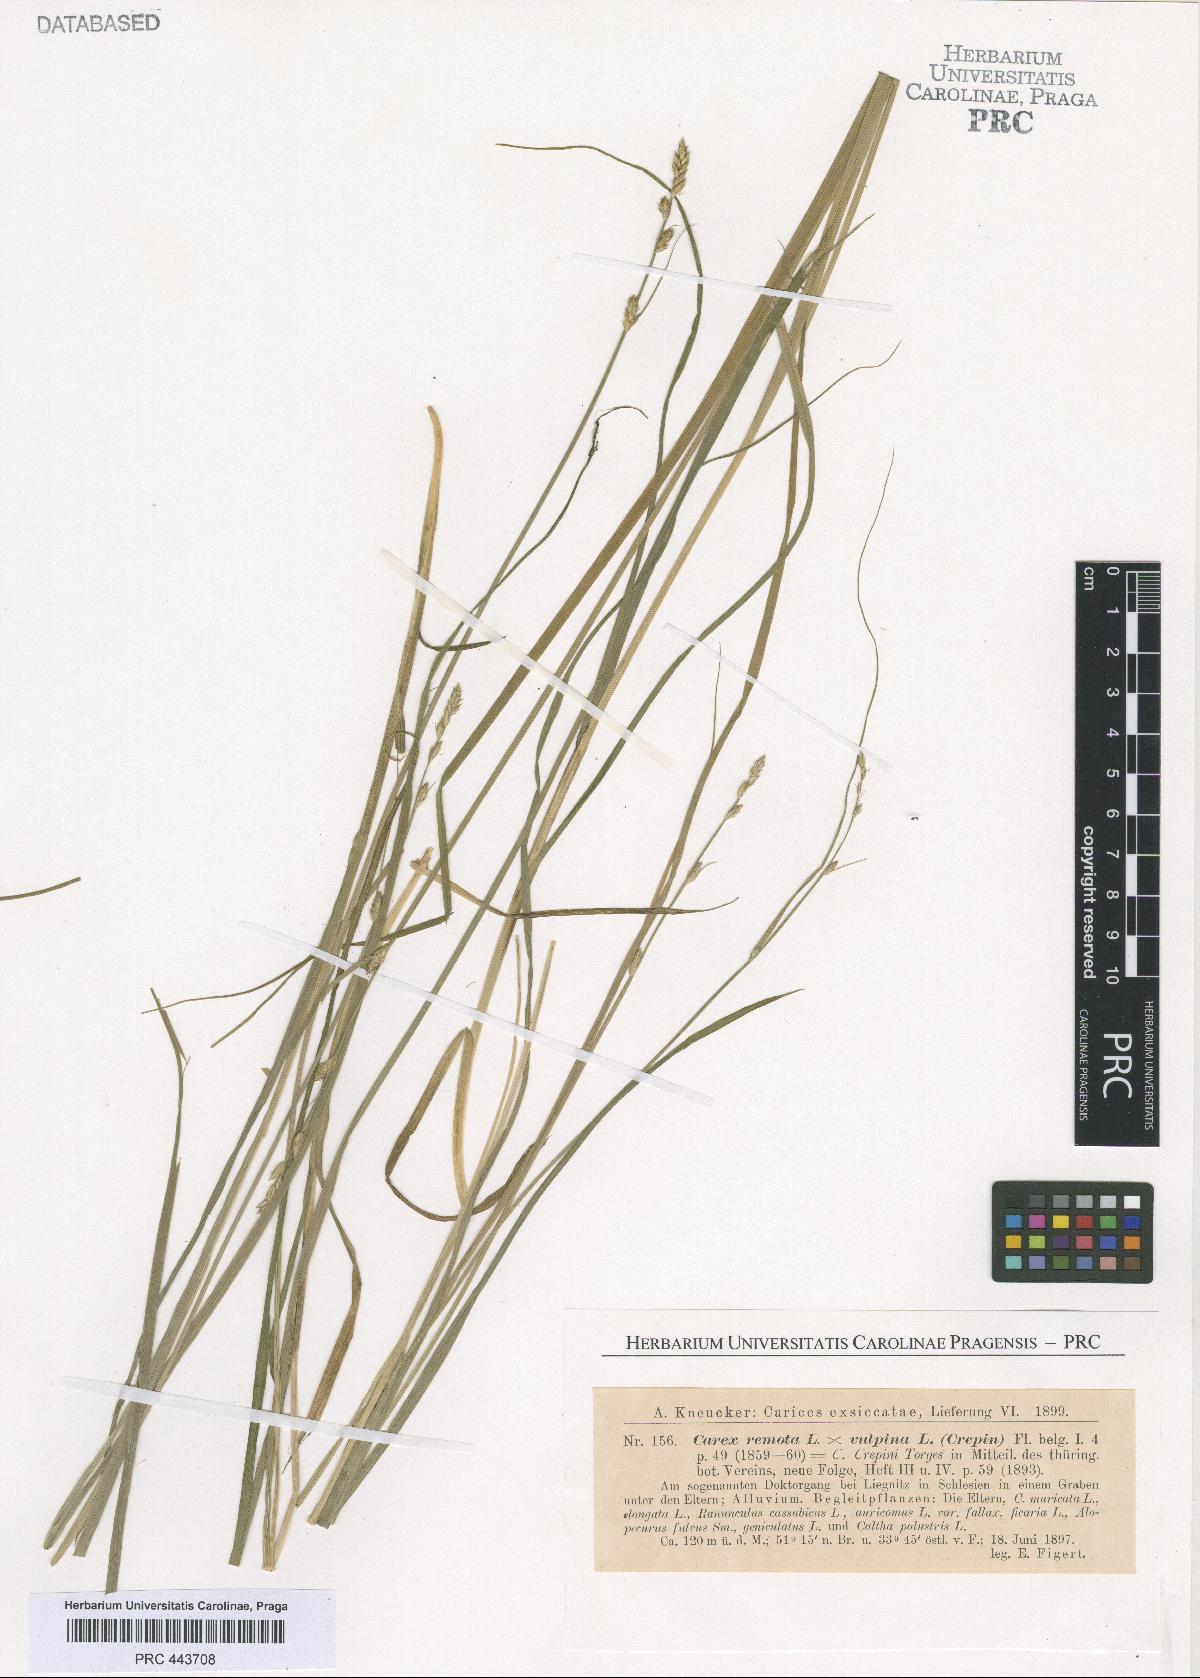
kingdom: Plantae
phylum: Tracheophyta
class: Liliopsida
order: Poales
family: Cyperaceae
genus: Carex
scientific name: Carex pseudoaxillaris
